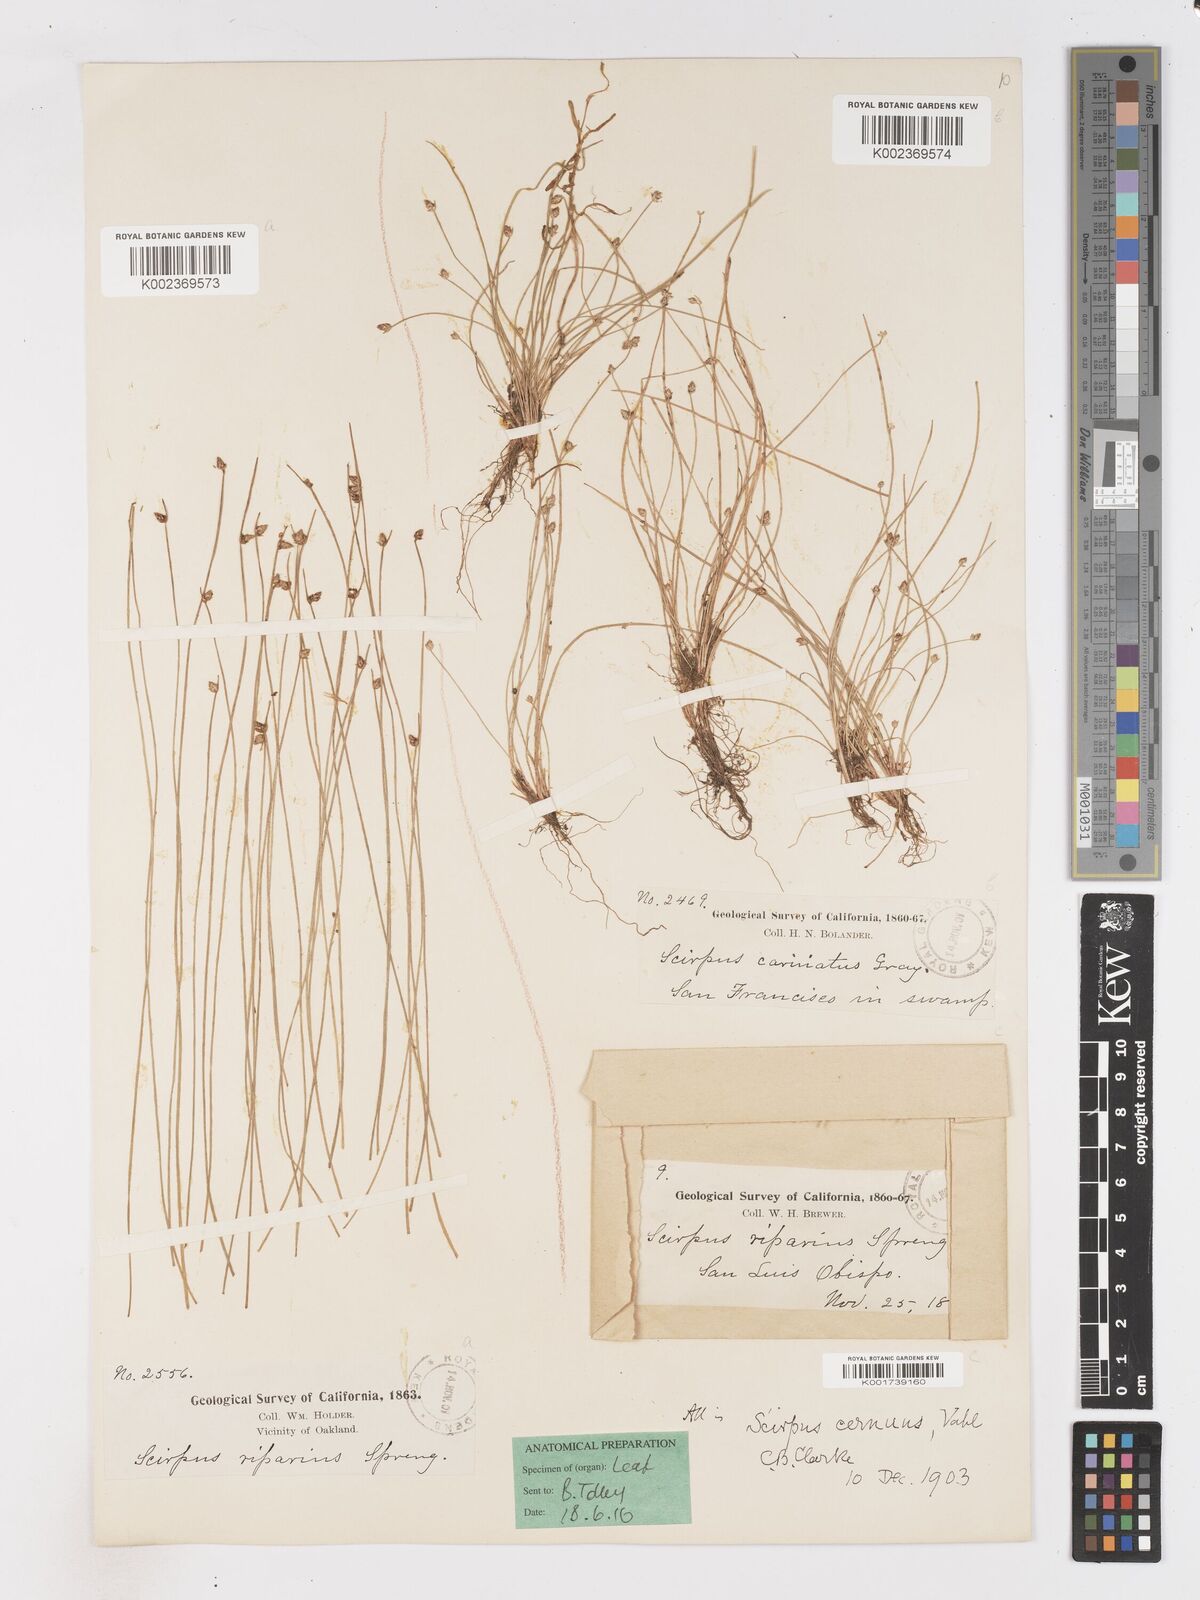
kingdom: Plantae
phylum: Tracheophyta
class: Liliopsida
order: Poales
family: Cyperaceae
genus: Isolepis
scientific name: Isolepis cernua
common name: Slender club-rush
